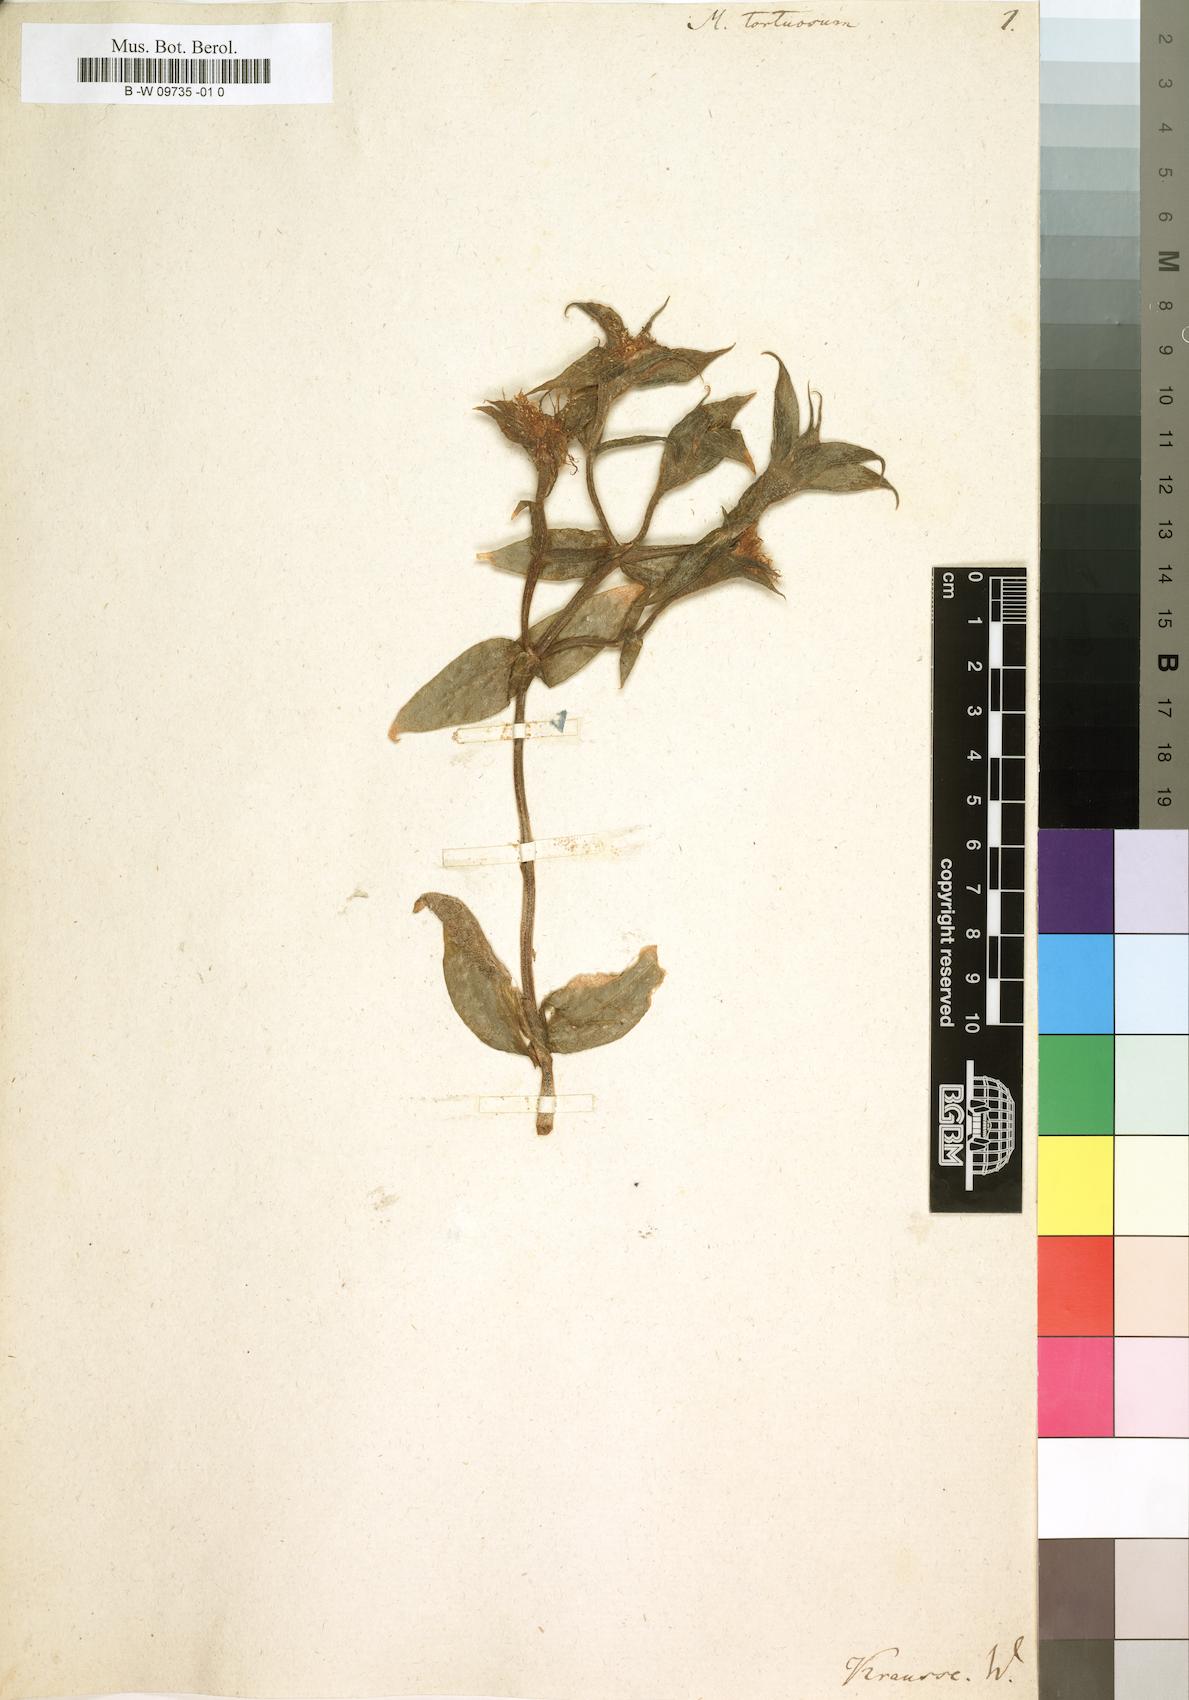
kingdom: Plantae
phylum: Tracheophyta
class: Magnoliopsida
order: Caryophyllales
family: Aizoaceae
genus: Mesembryanthemum
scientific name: Mesembryanthemum tortuosum
